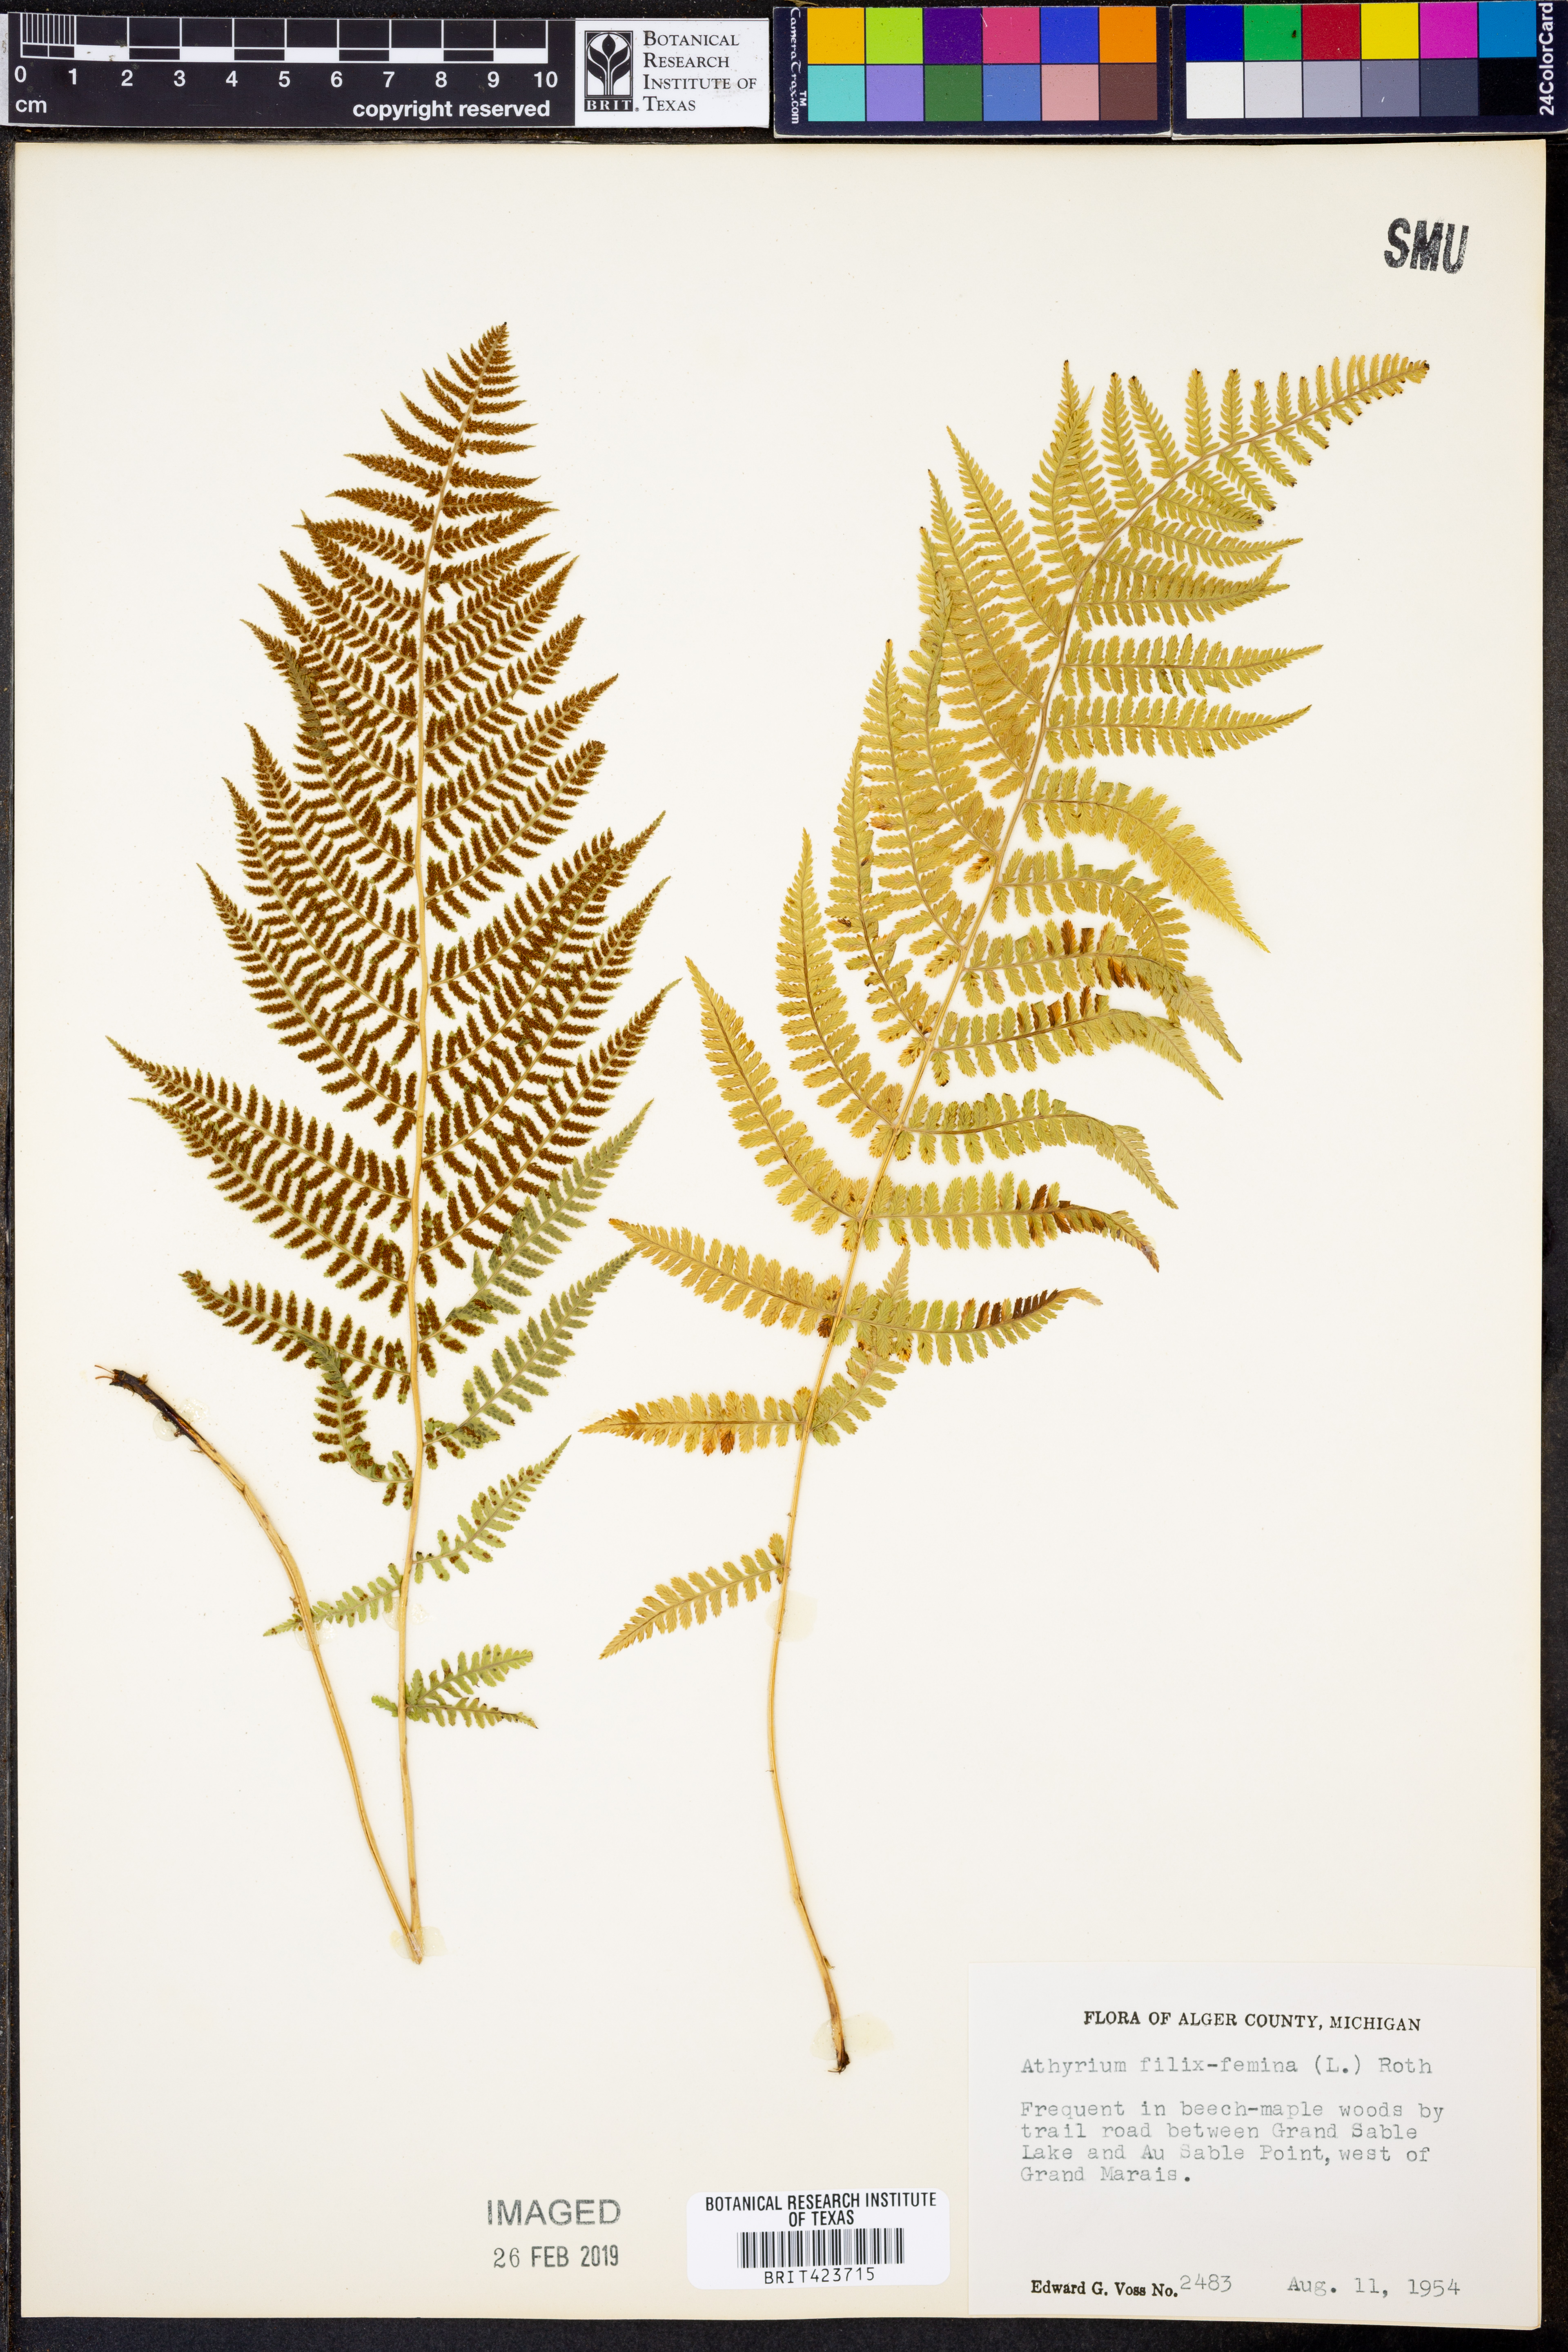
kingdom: Plantae
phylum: Tracheophyta
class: Polypodiopsida
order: Polypodiales
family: Athyriaceae
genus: Athyrium
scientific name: Athyrium filix-femina
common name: Lady fern
